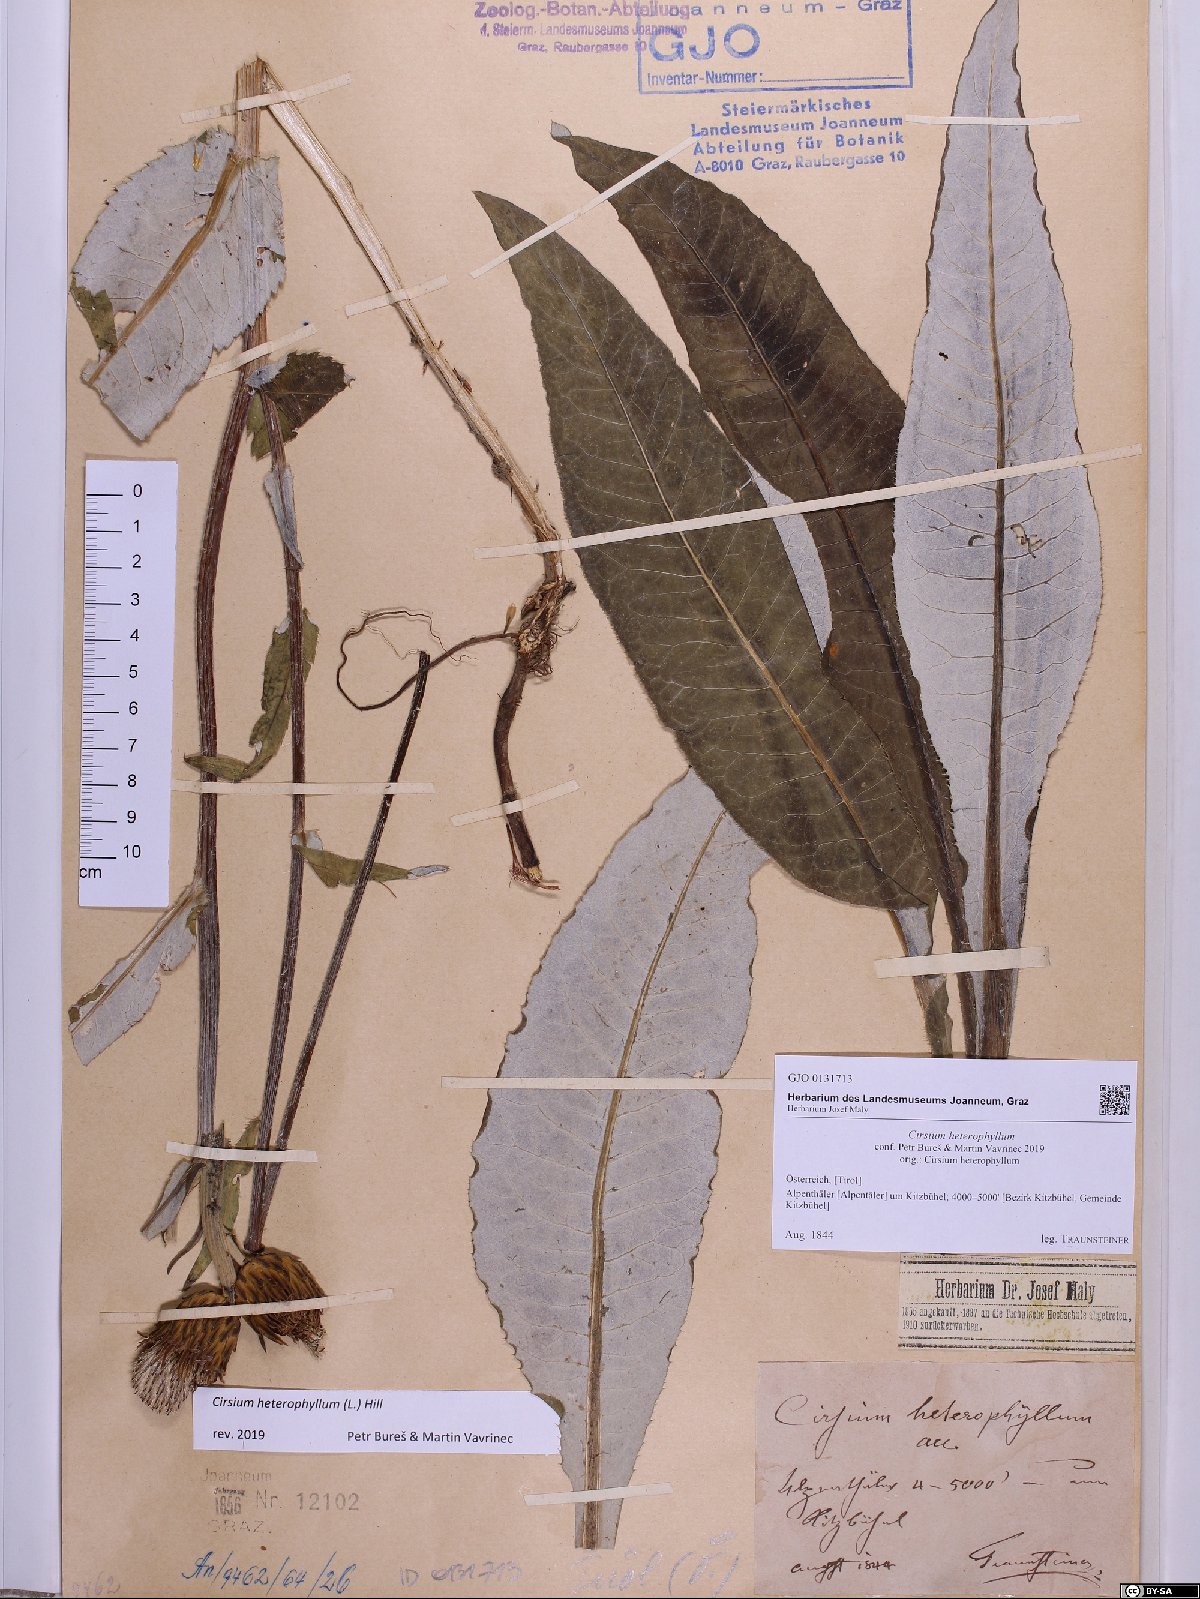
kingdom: Plantae
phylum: Tracheophyta
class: Magnoliopsida
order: Asterales
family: Asteraceae
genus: Cirsium
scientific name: Cirsium heterophyllum
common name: Melancholy thistle
